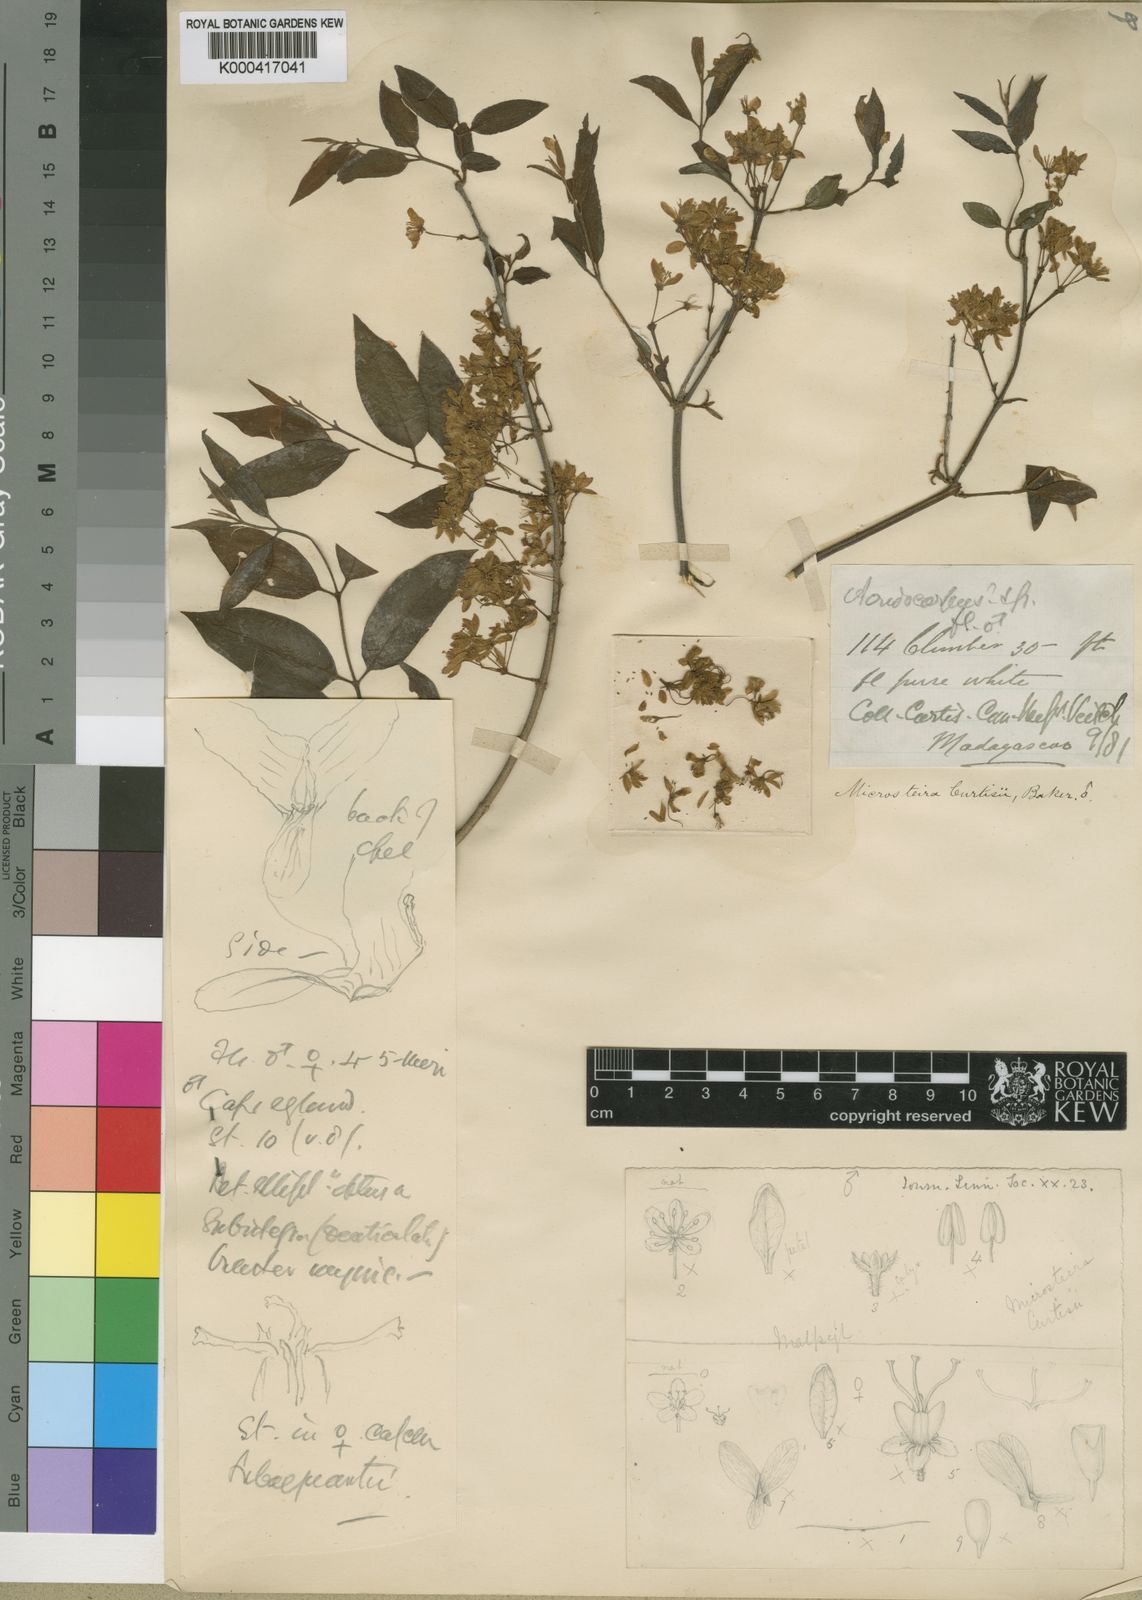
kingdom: Plantae
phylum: Tracheophyta
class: Magnoliopsida
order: Malpighiales
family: Malpighiaceae
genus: Microsteira
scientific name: Microsteira curtisii
